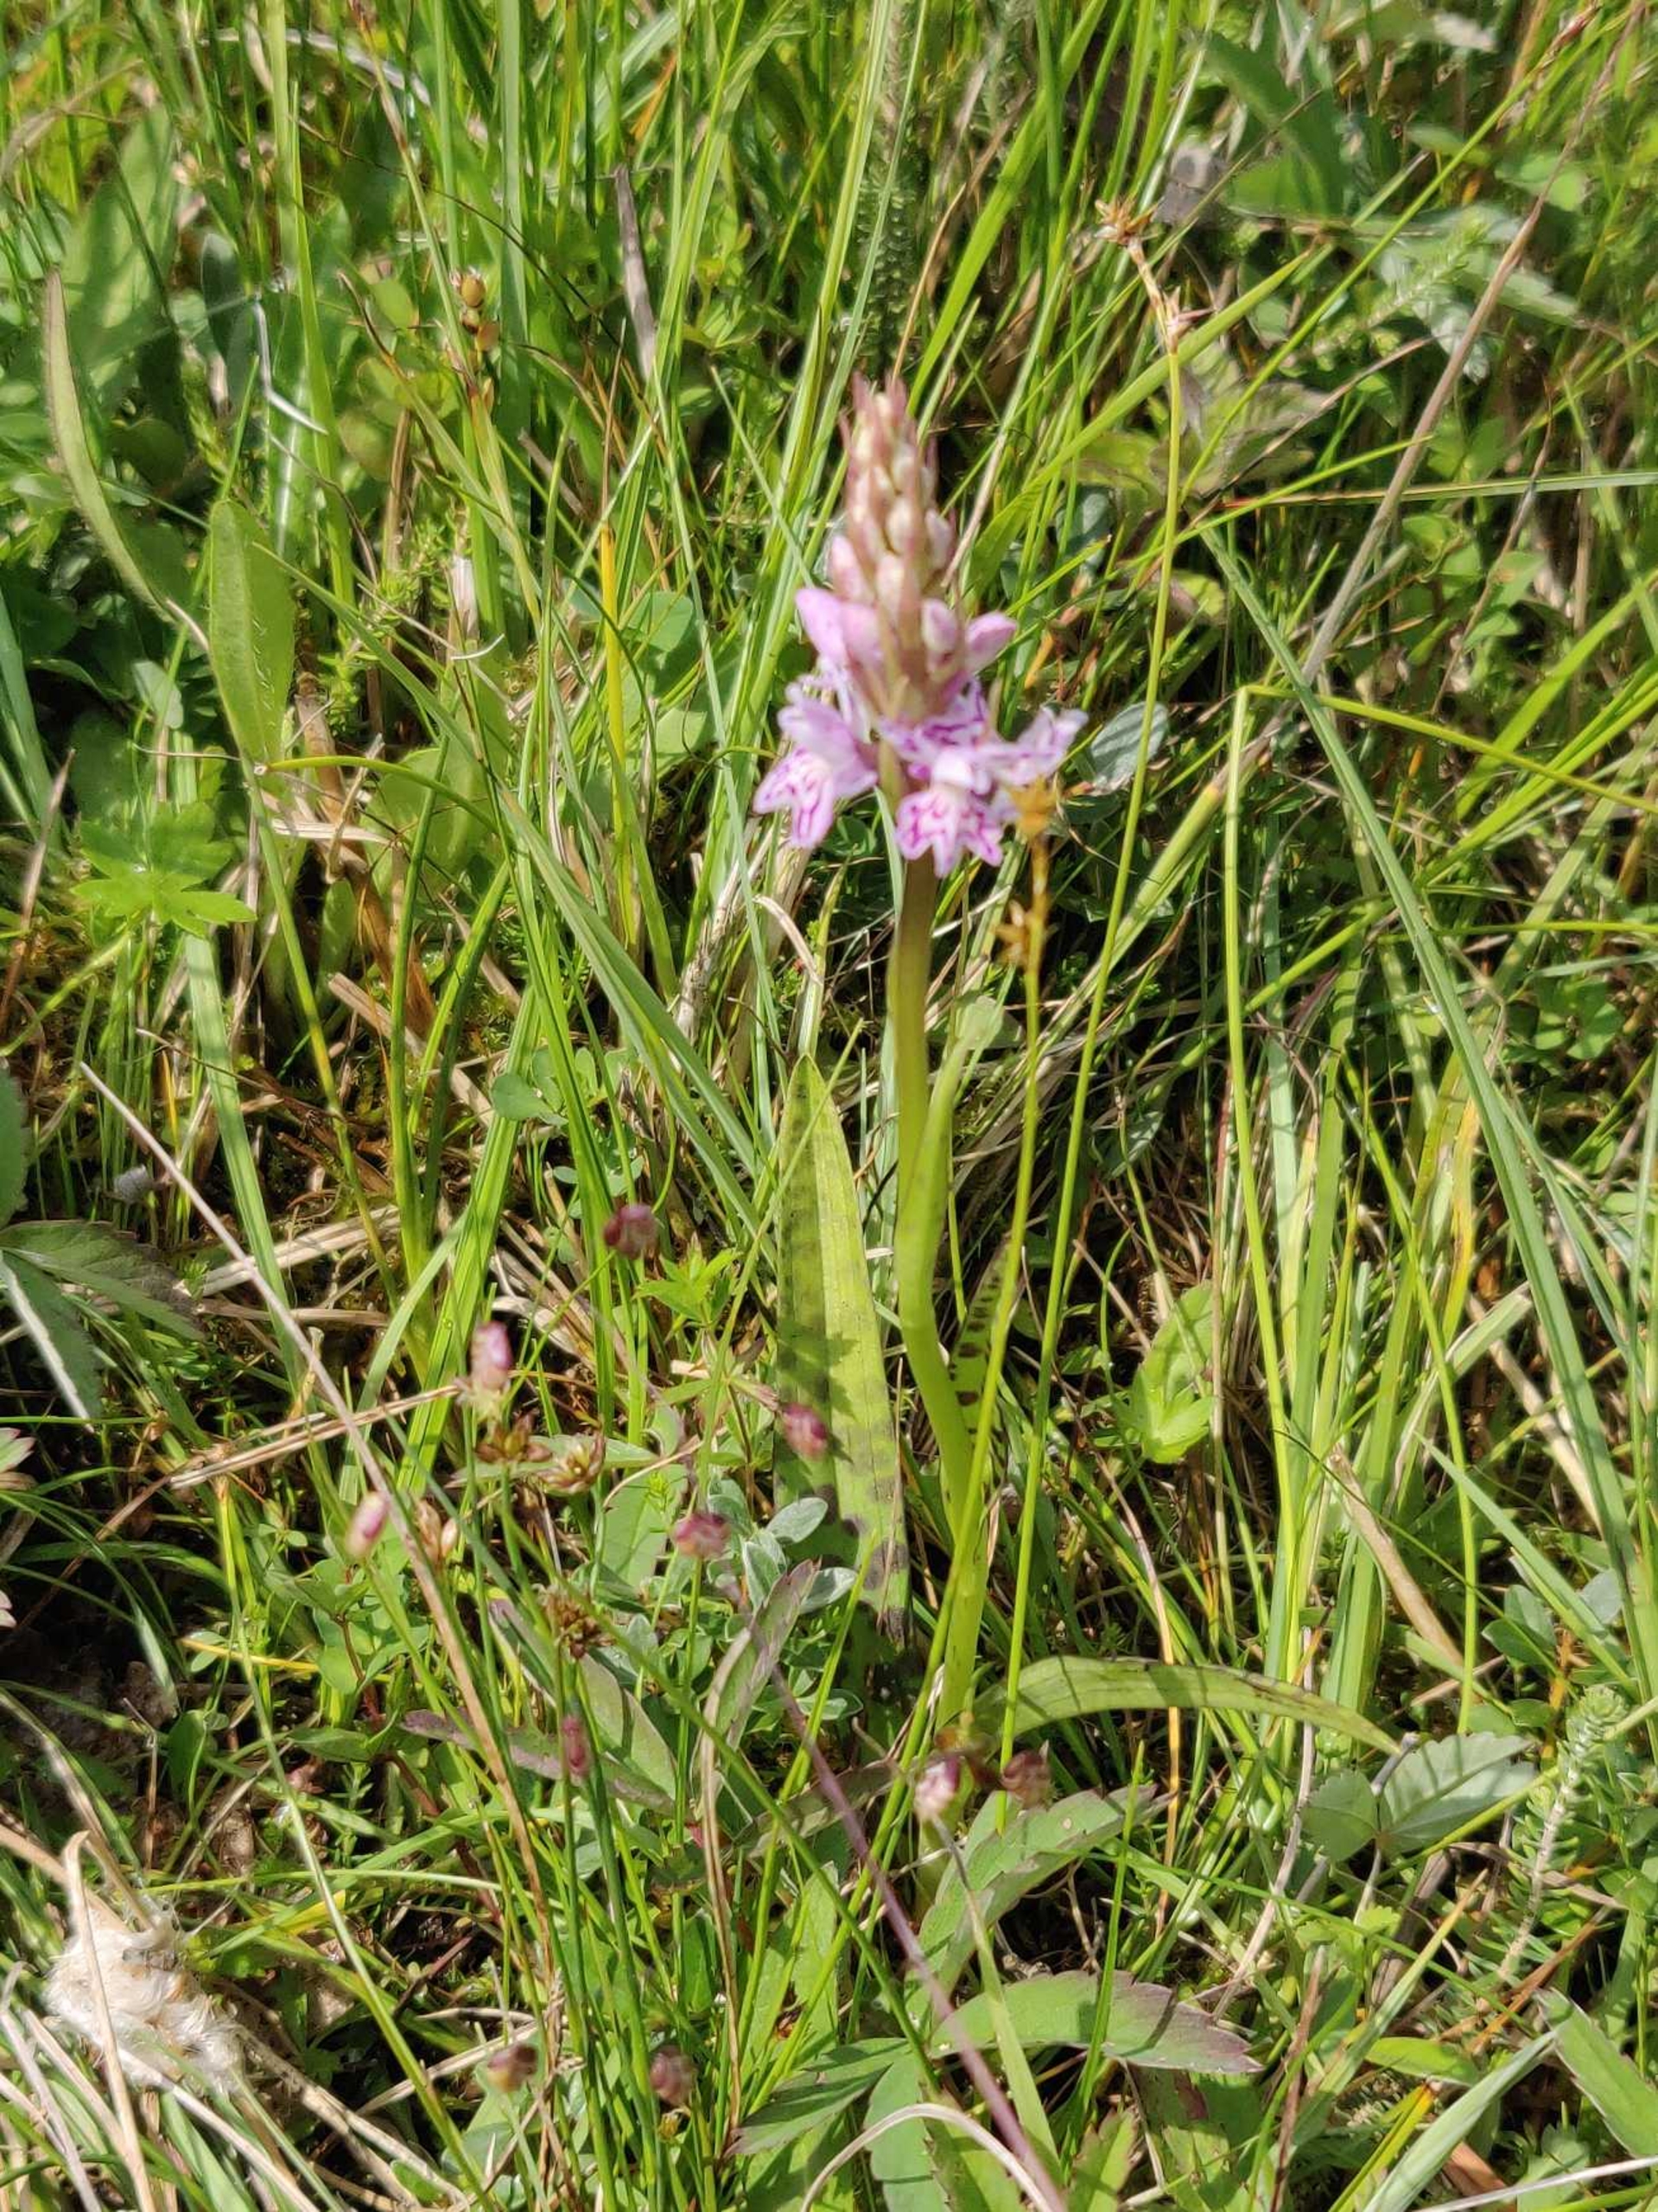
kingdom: Plantae
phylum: Tracheophyta
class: Liliopsida
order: Asparagales
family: Orchidaceae
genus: Dactylorhiza
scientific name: Dactylorhiza maculata
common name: Plettet gøgeurt
